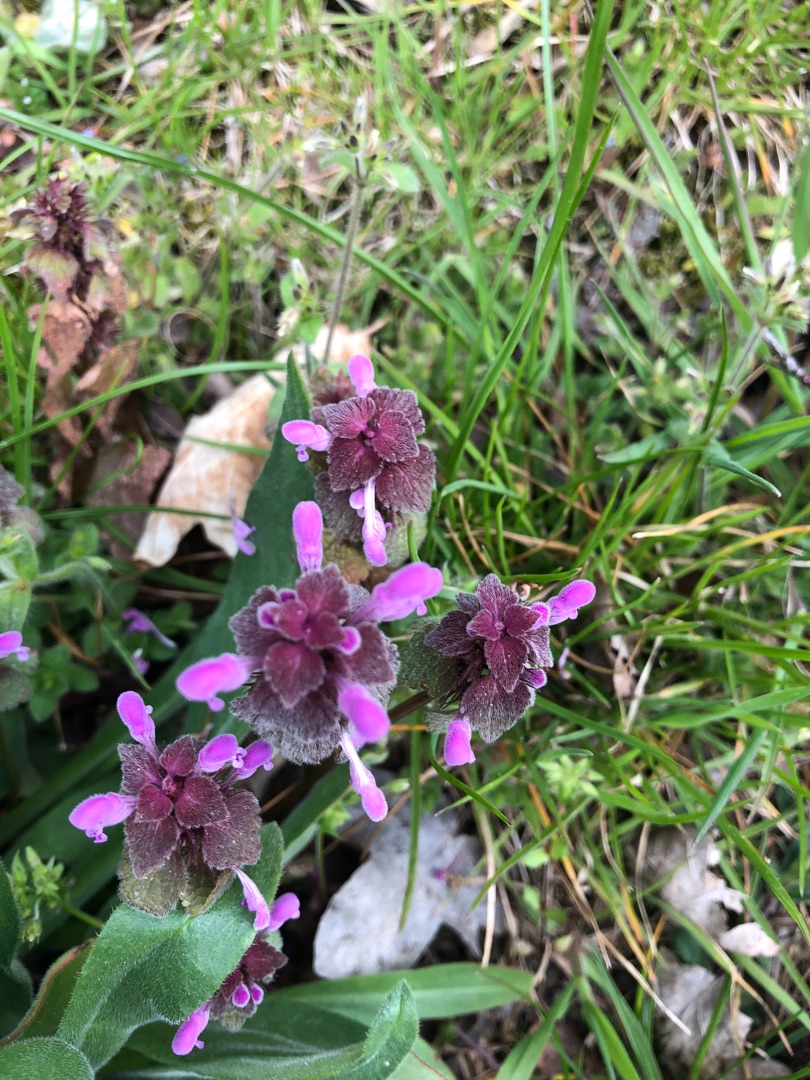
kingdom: Plantae
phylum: Tracheophyta
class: Magnoliopsida
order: Lamiales
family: Lamiaceae
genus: Lamium
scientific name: Lamium purpureum
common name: Rød tvetand
